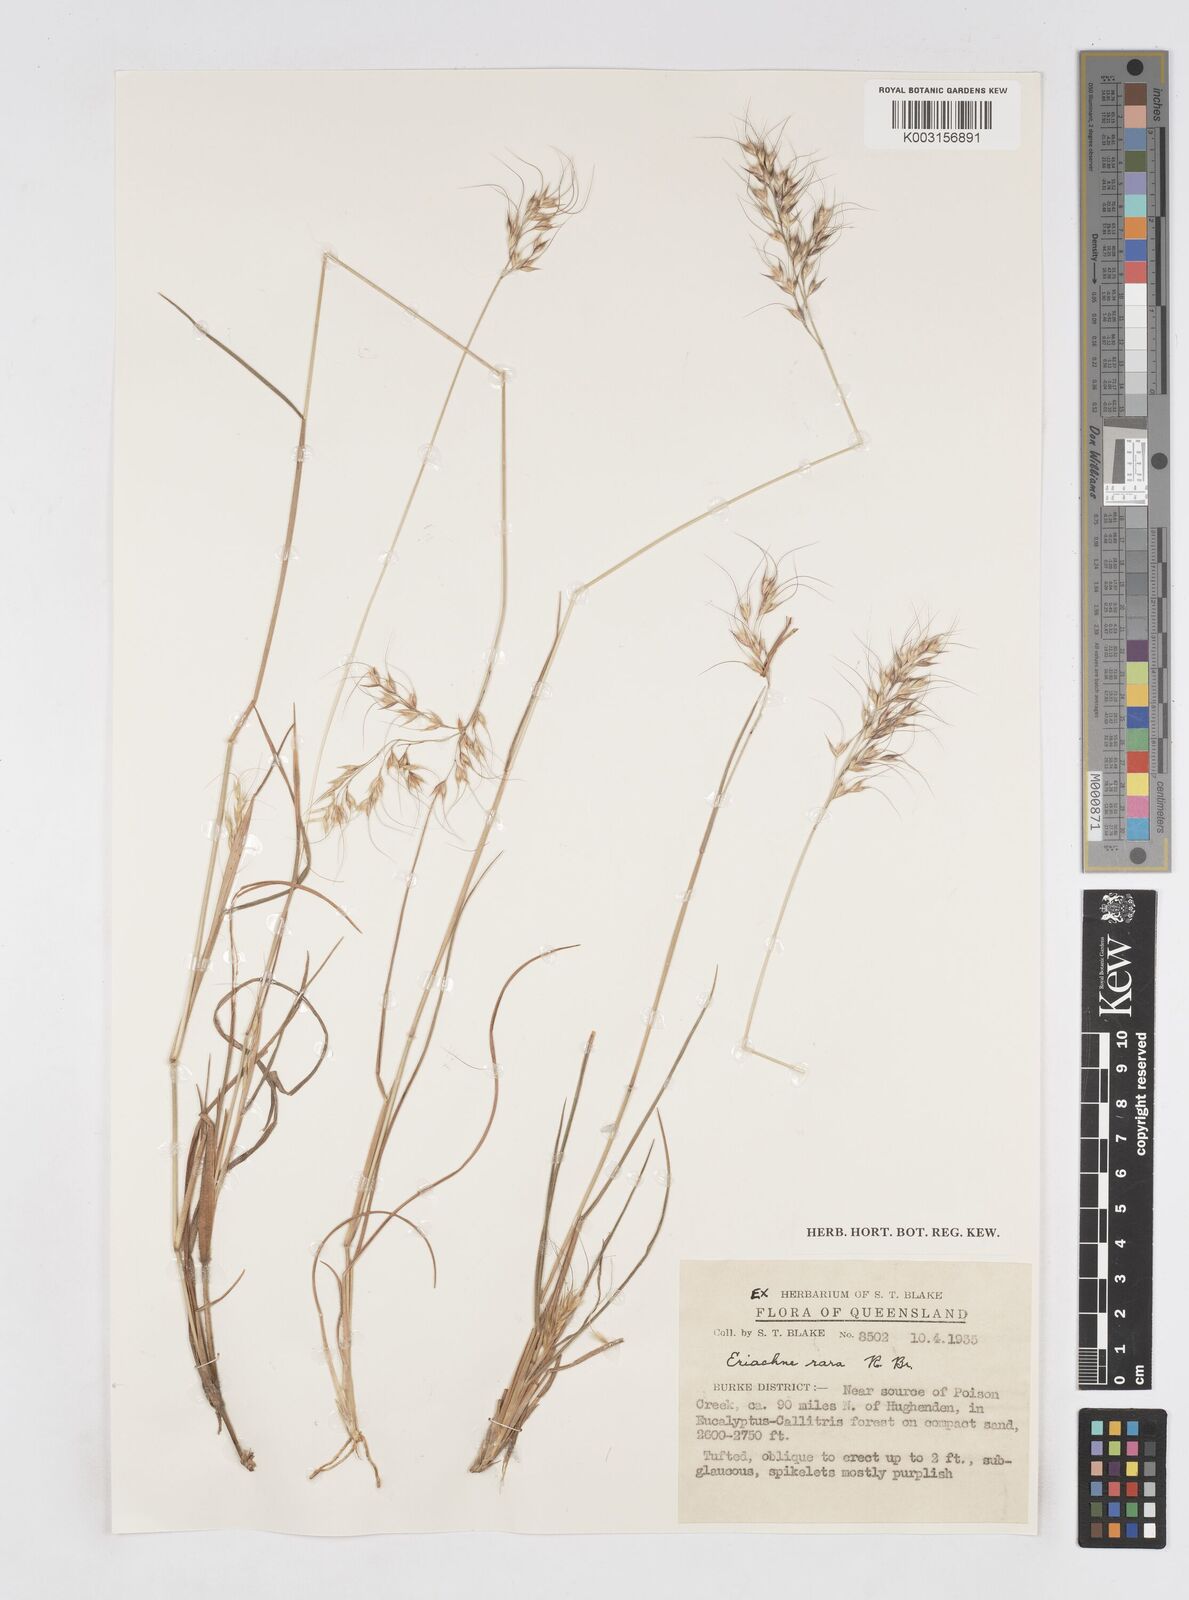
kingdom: Plantae
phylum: Tracheophyta
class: Liliopsida
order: Poales
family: Poaceae
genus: Eriachne
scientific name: Eriachne rara
